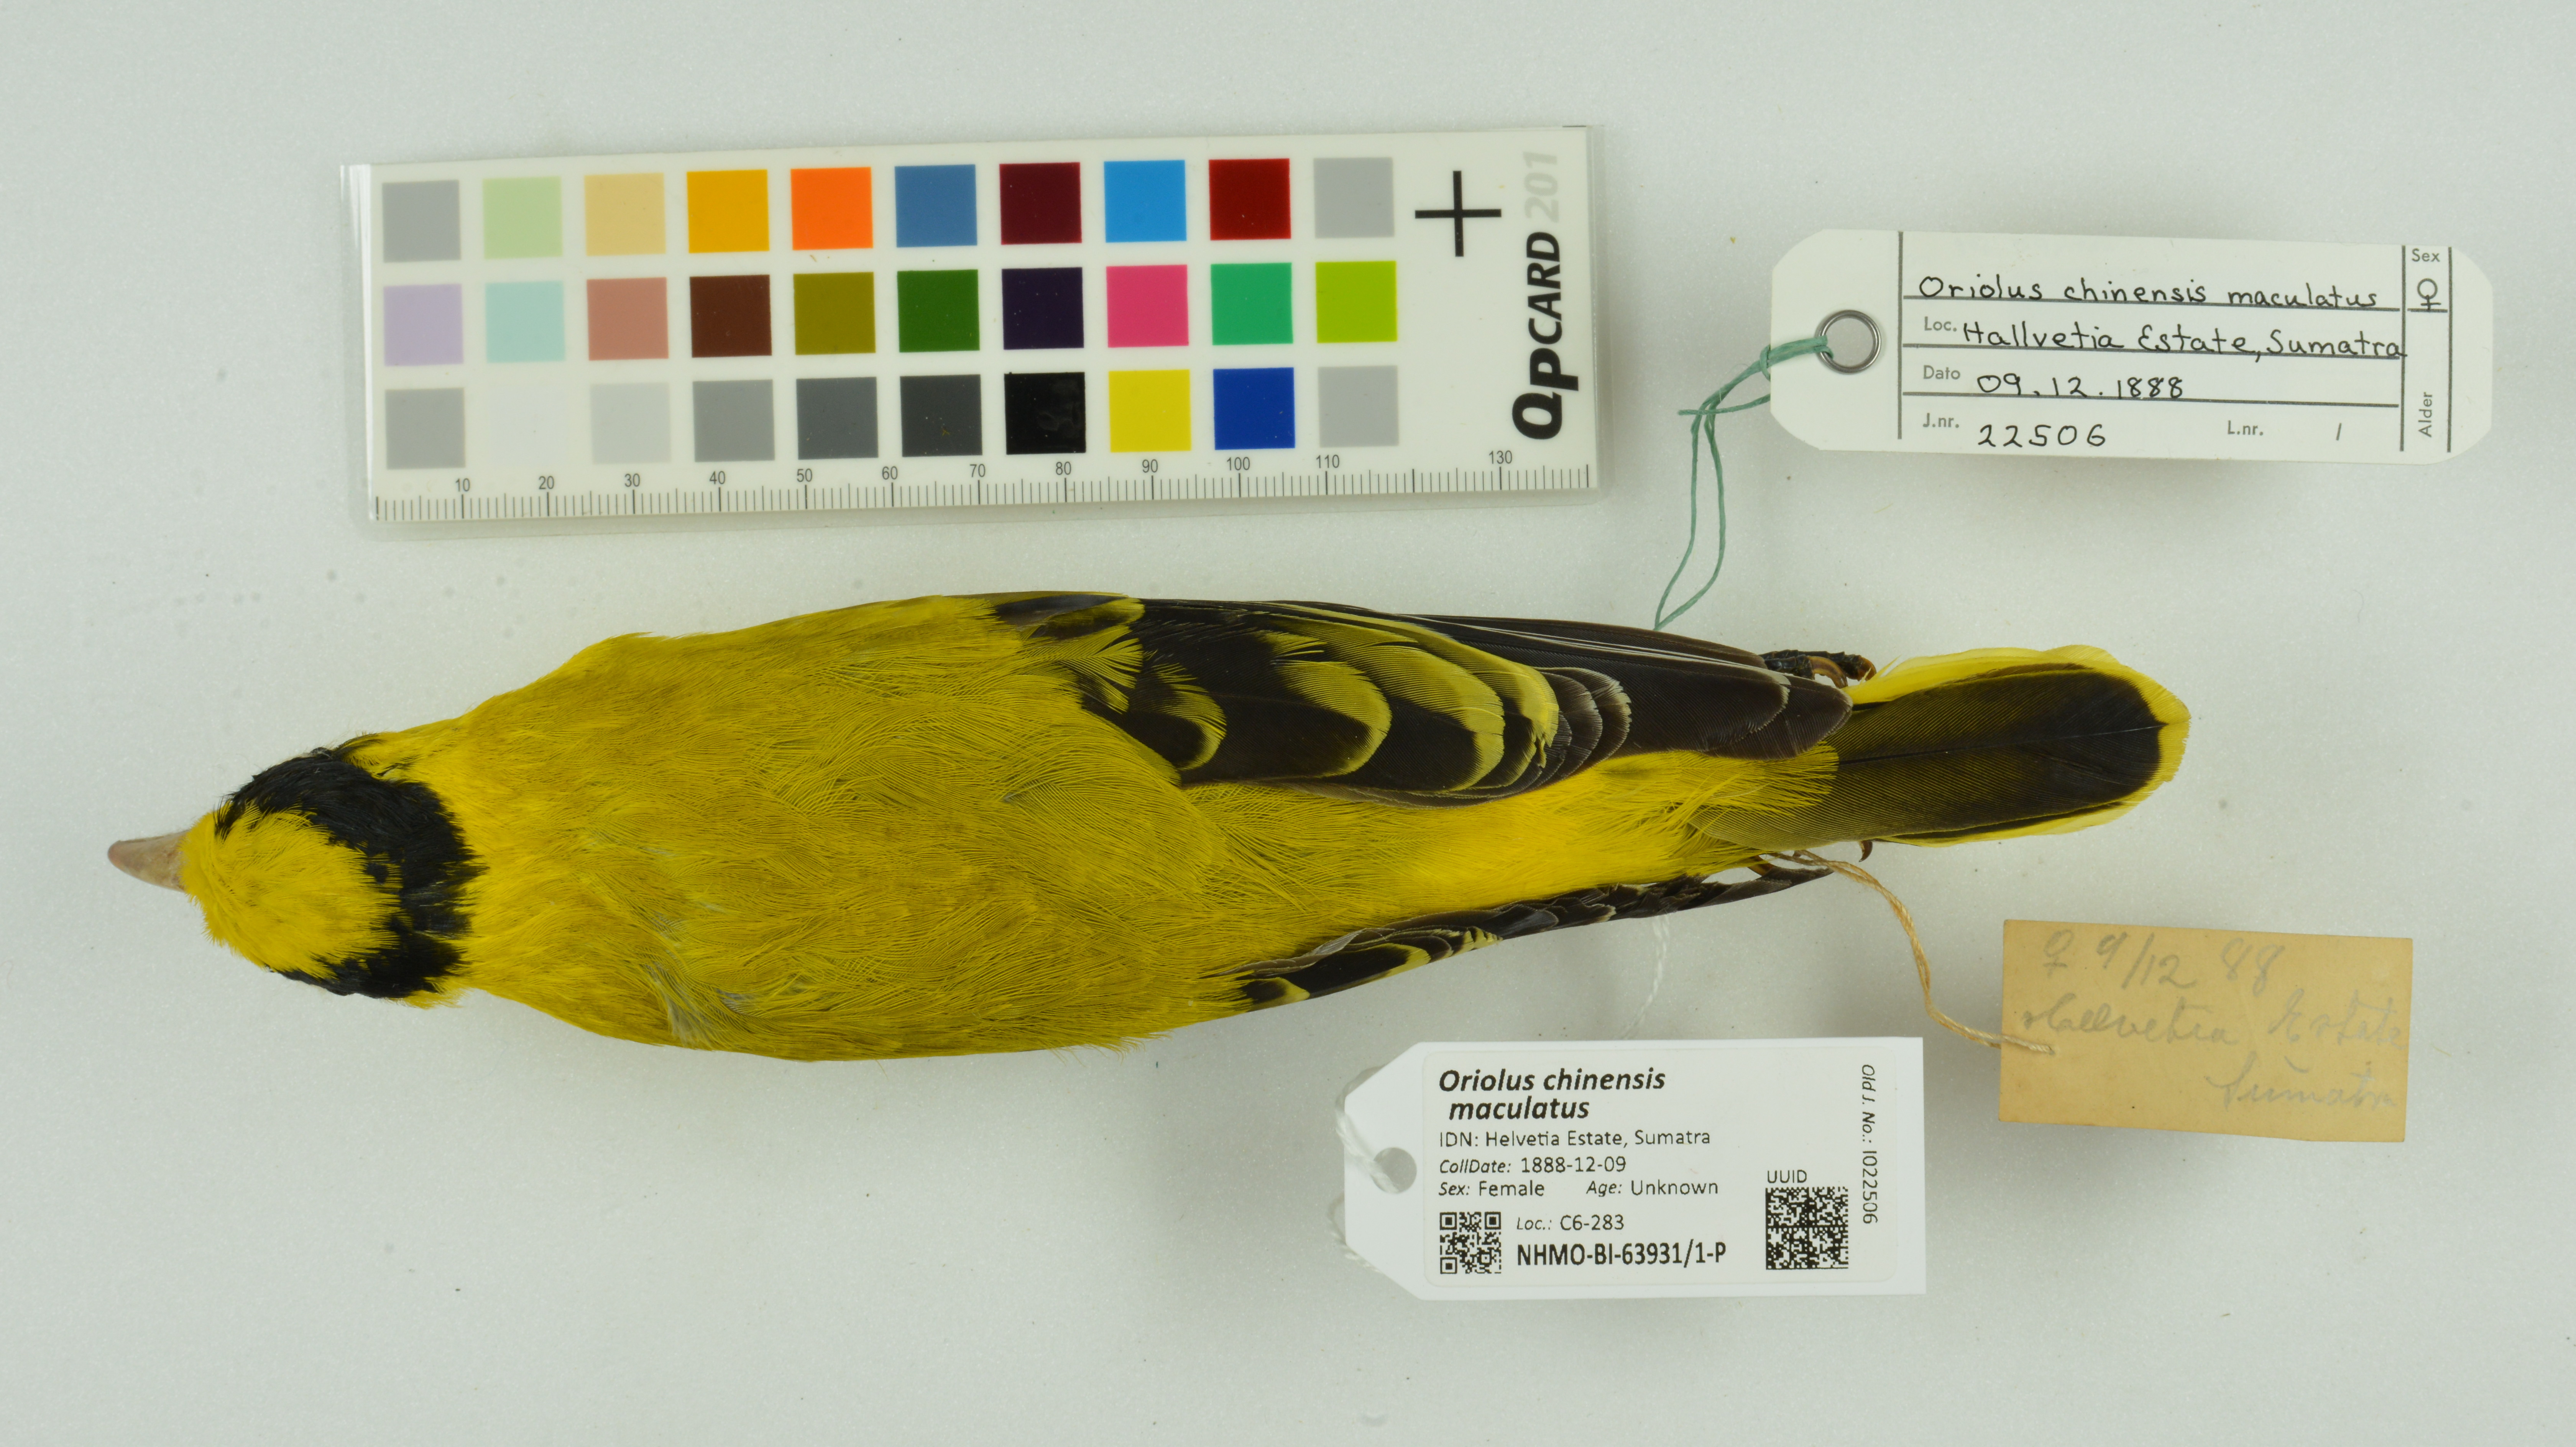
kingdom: Animalia
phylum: Chordata
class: Aves
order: Passeriformes
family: Oriolidae
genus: Oriolus
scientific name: Oriolus chinensis
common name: Black-naped oriole
